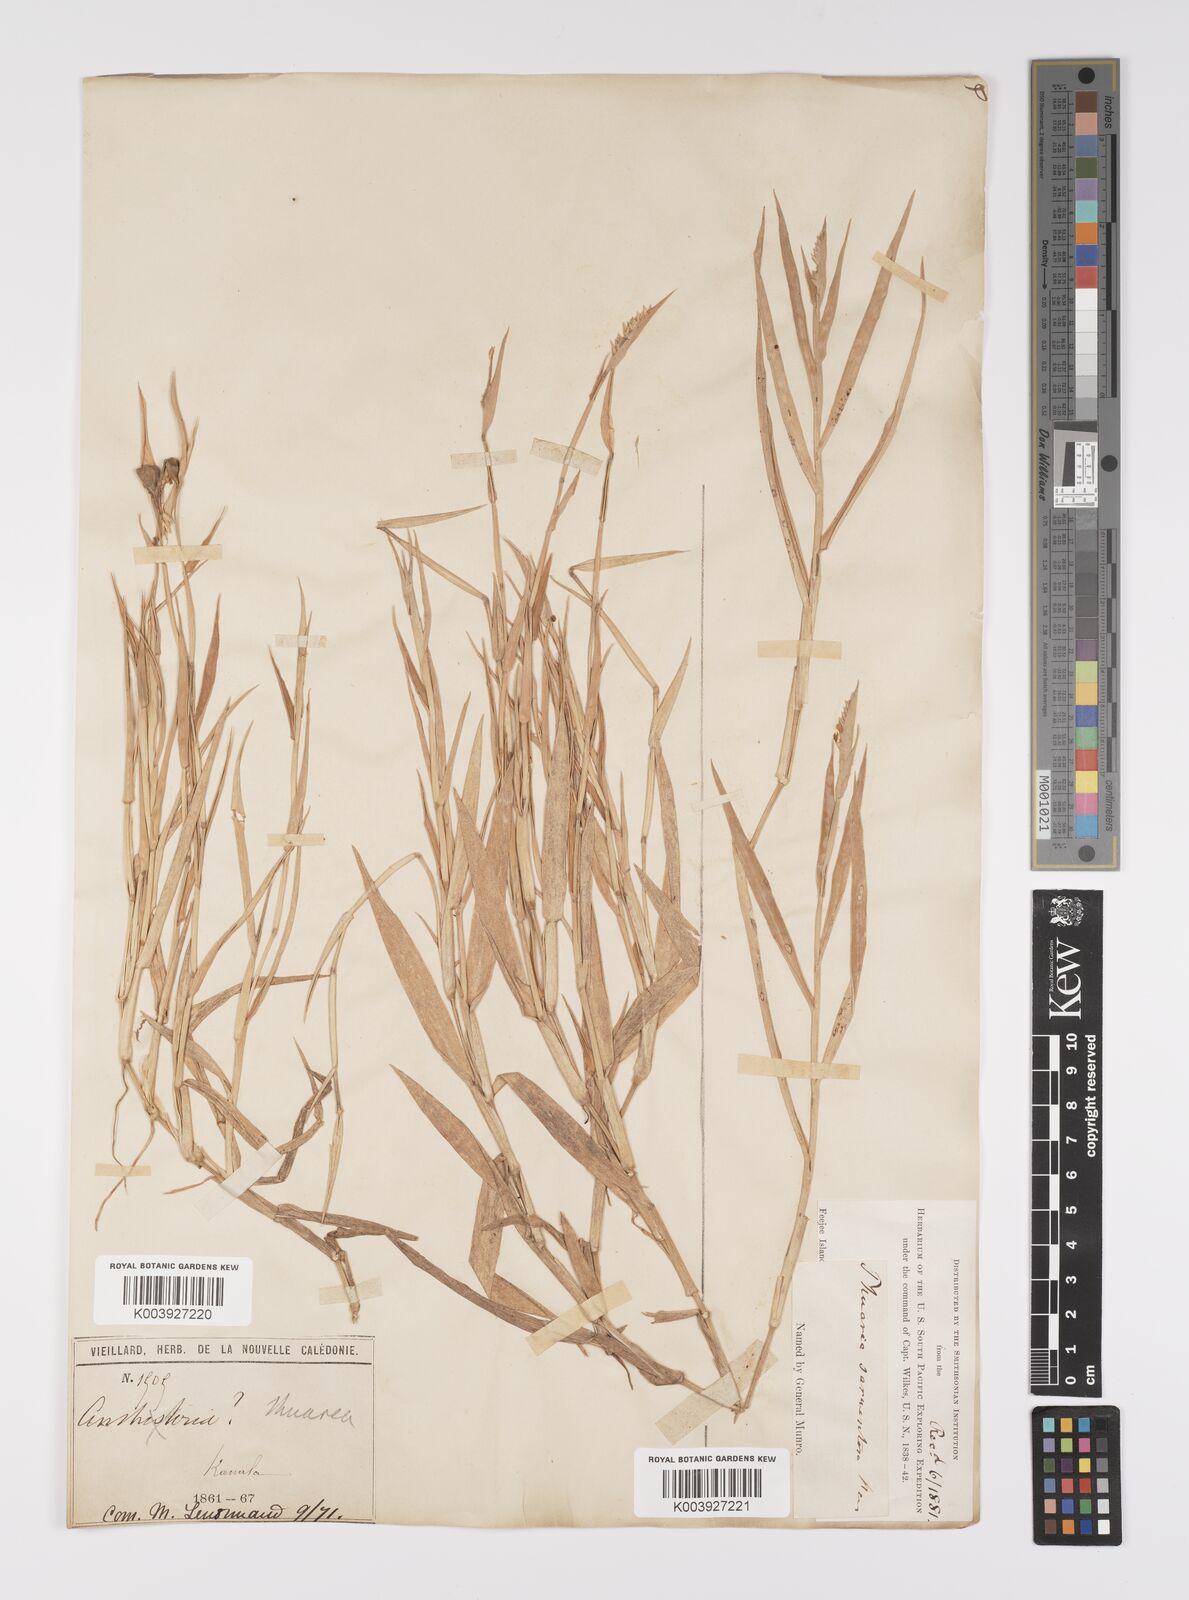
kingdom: Plantae
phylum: Tracheophyta
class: Liliopsida
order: Poales
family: Poaceae
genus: Thuarea
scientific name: Thuarea involuta
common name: Tropical beach grass
